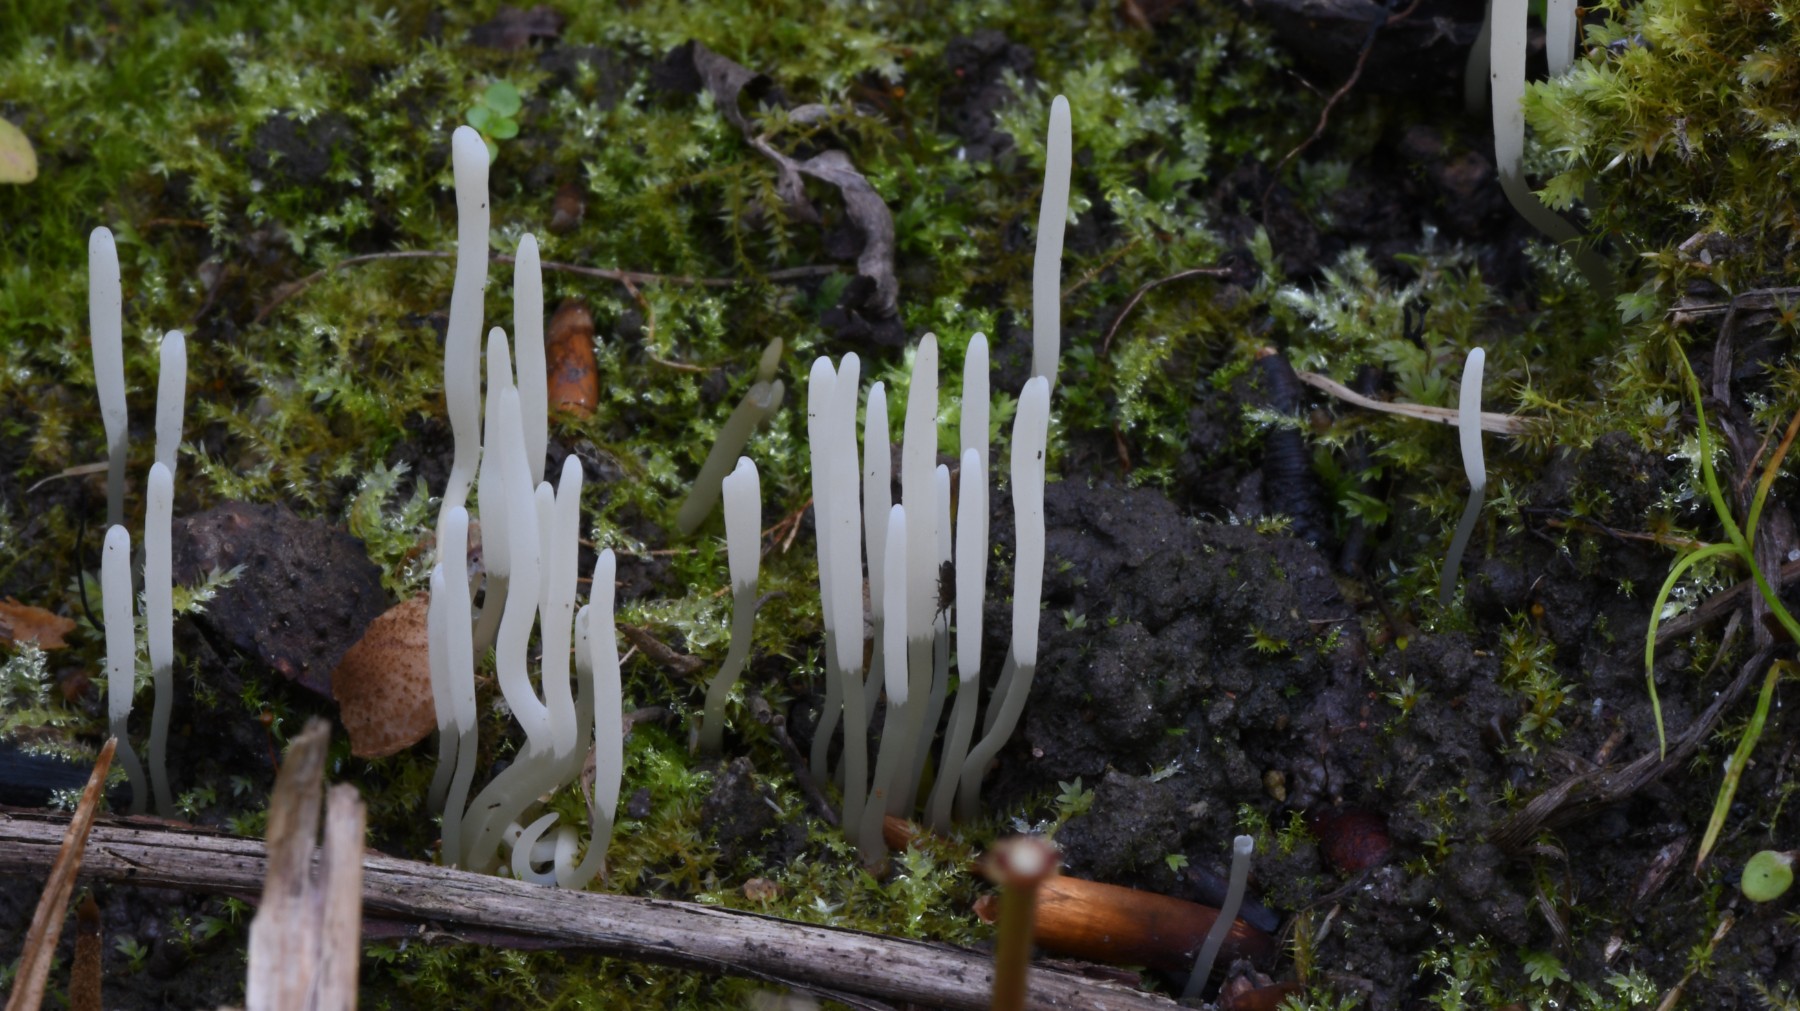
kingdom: Fungi
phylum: Basidiomycota
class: Agaricomycetes
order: Agaricales
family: Clavariaceae
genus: Clavaria
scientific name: Clavaria falcata
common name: hvid køllesvamp
